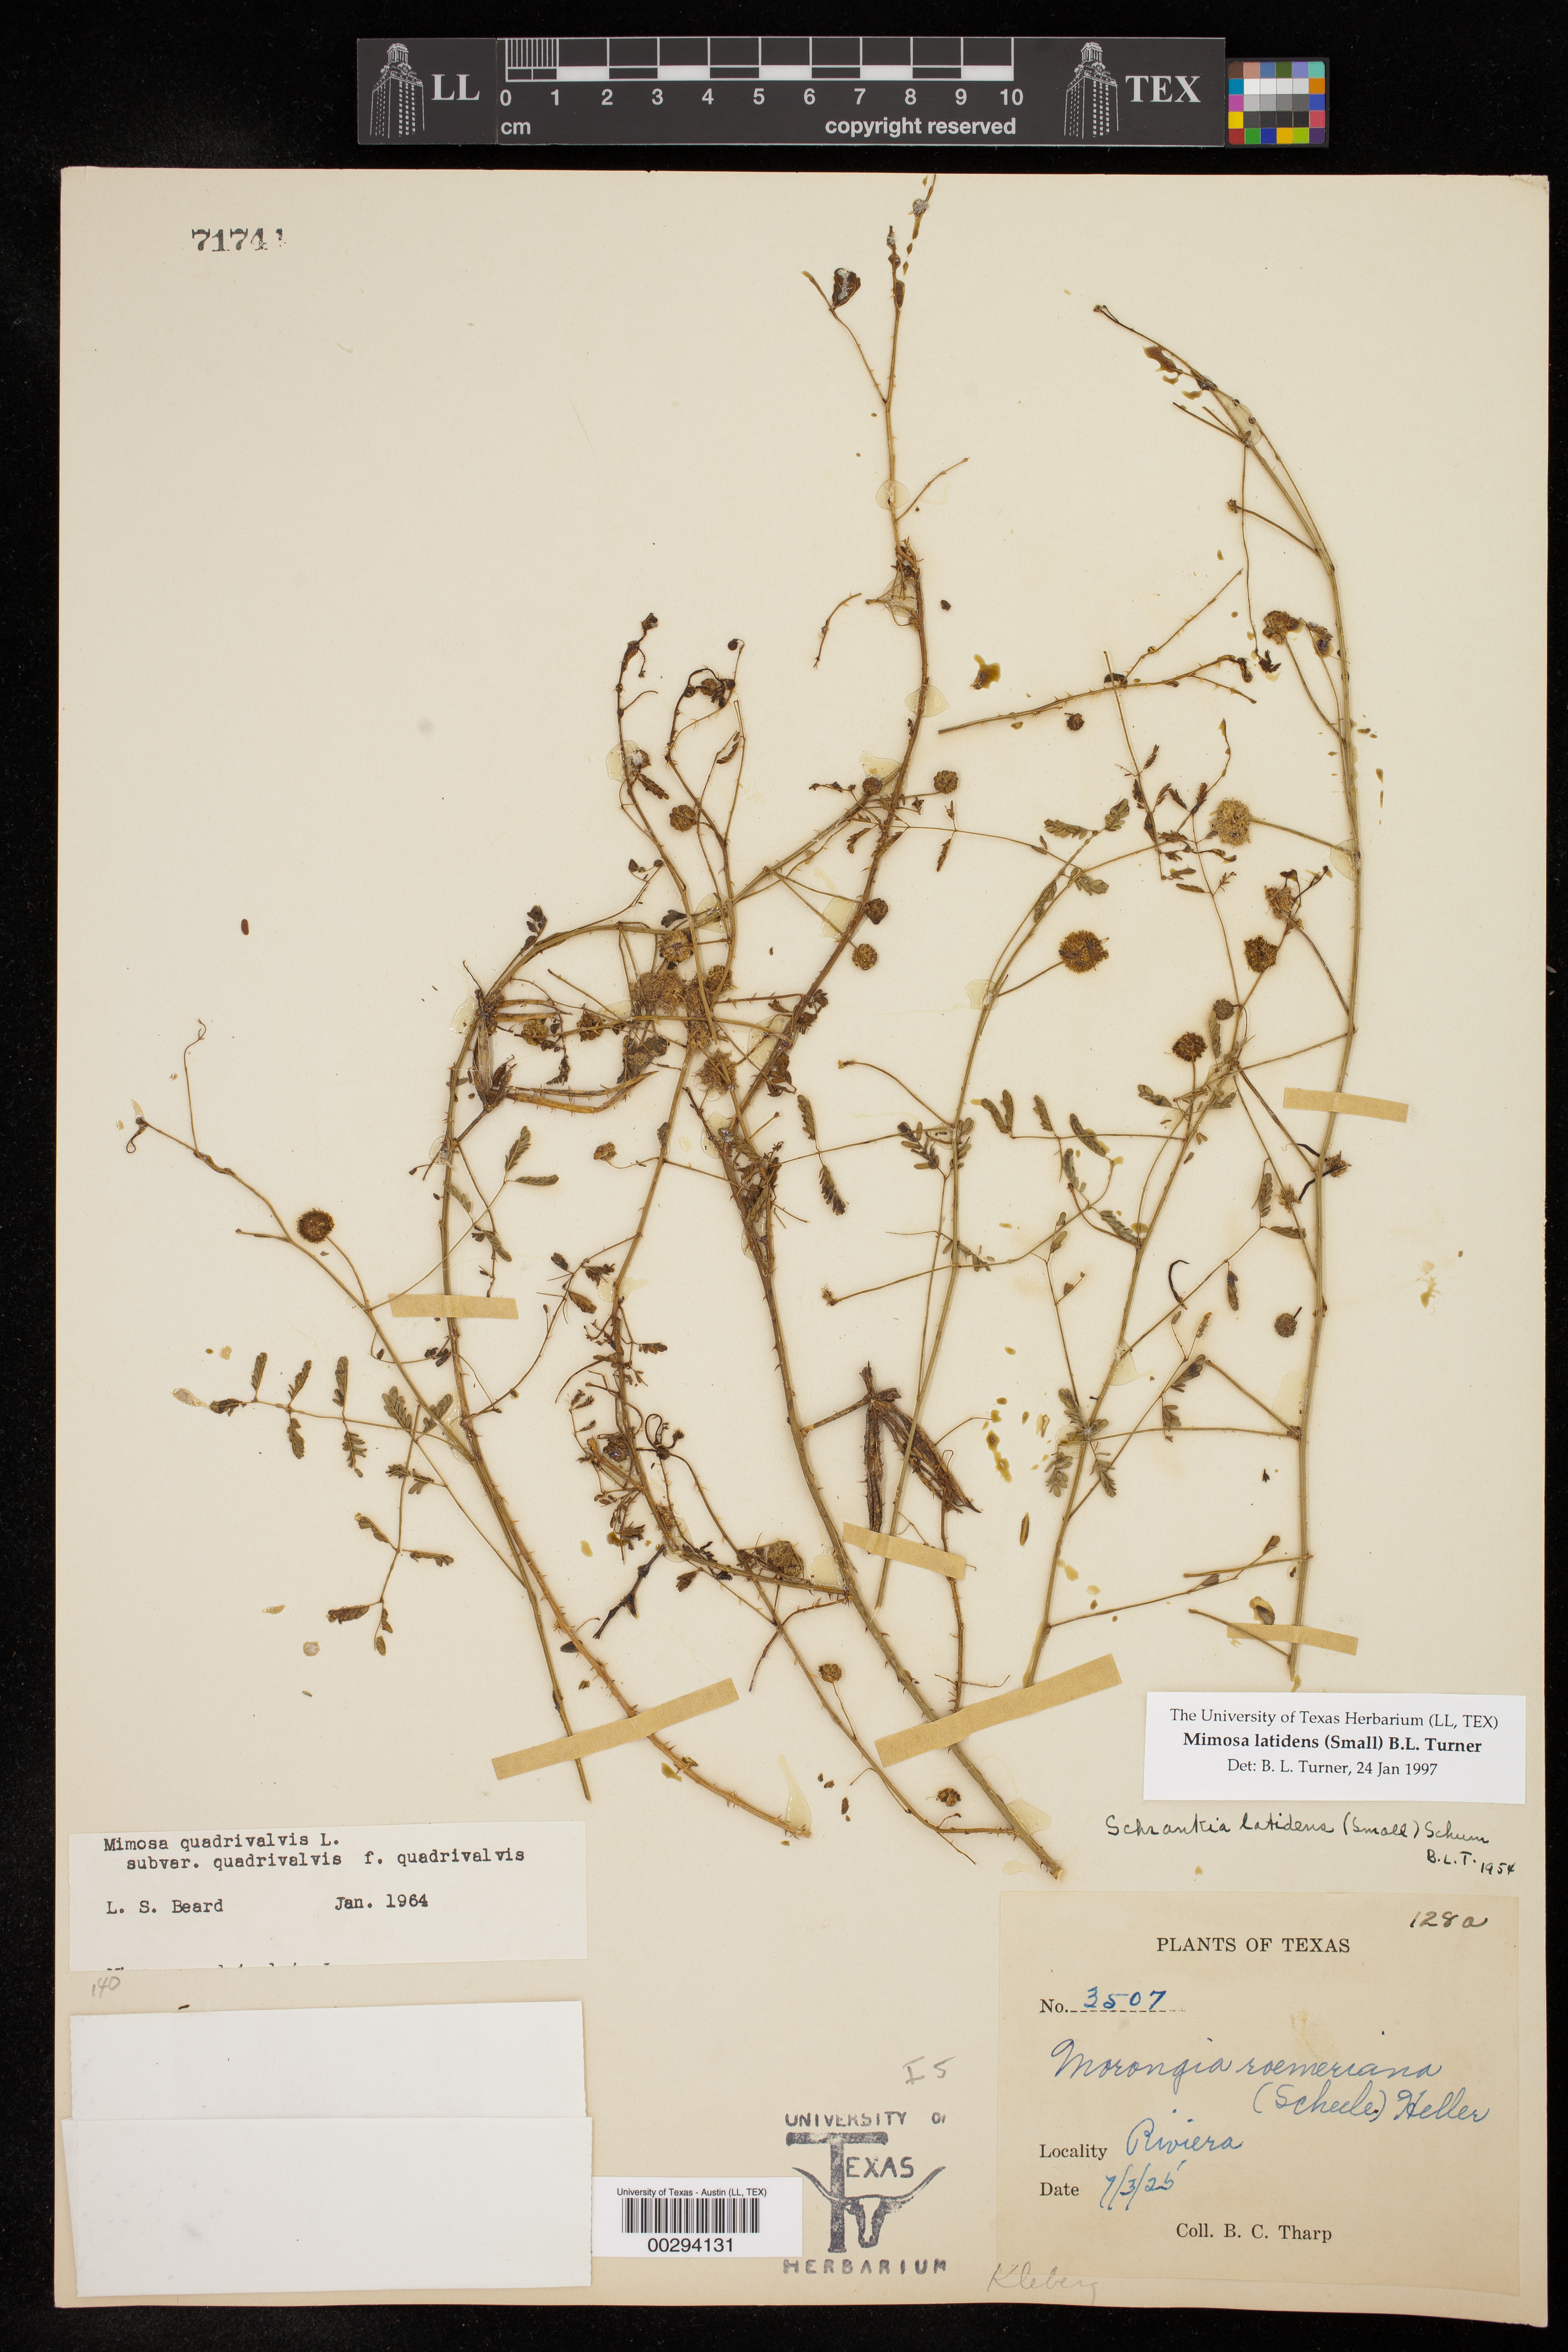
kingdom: Plantae
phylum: Tracheophyta
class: Magnoliopsida
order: Fabales
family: Fabaceae
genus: Mimosa
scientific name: Mimosa latidens
